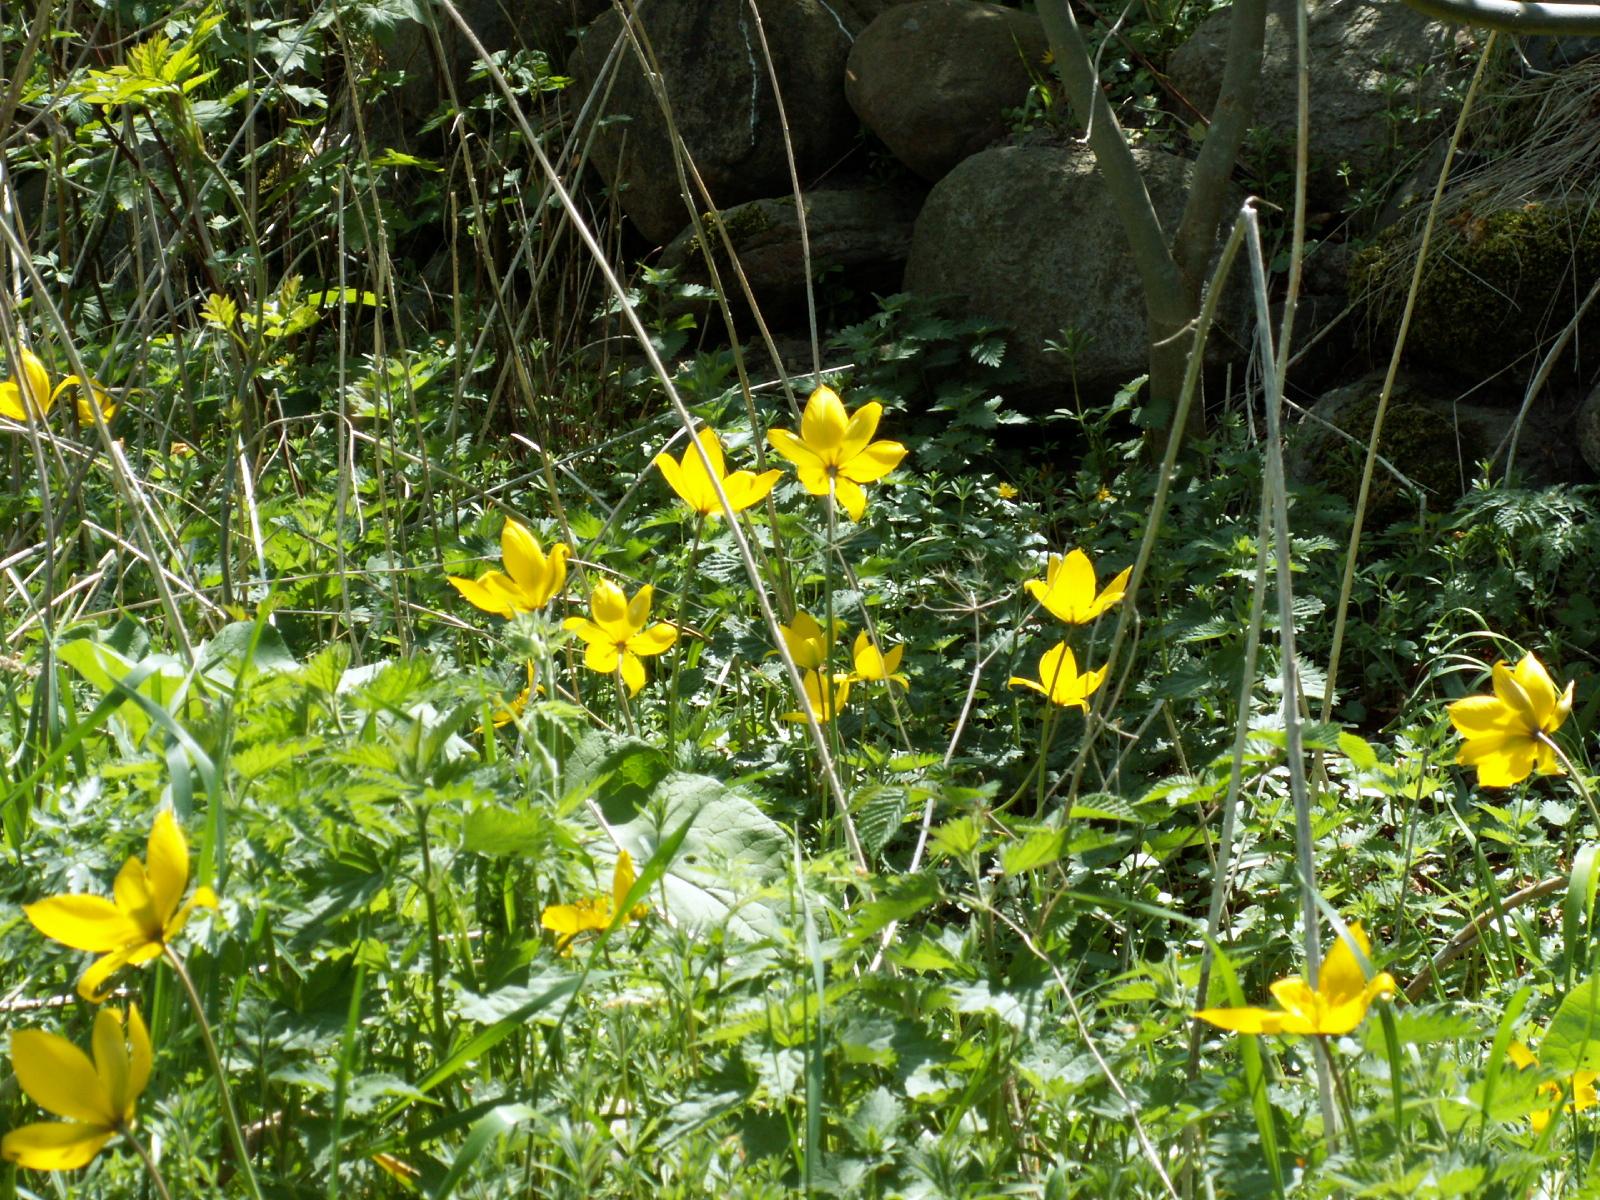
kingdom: Plantae
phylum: Tracheophyta
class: Liliopsida
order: Liliales
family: Liliaceae
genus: Tulipa
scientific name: Tulipa sylvestris
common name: Vild tulipan
